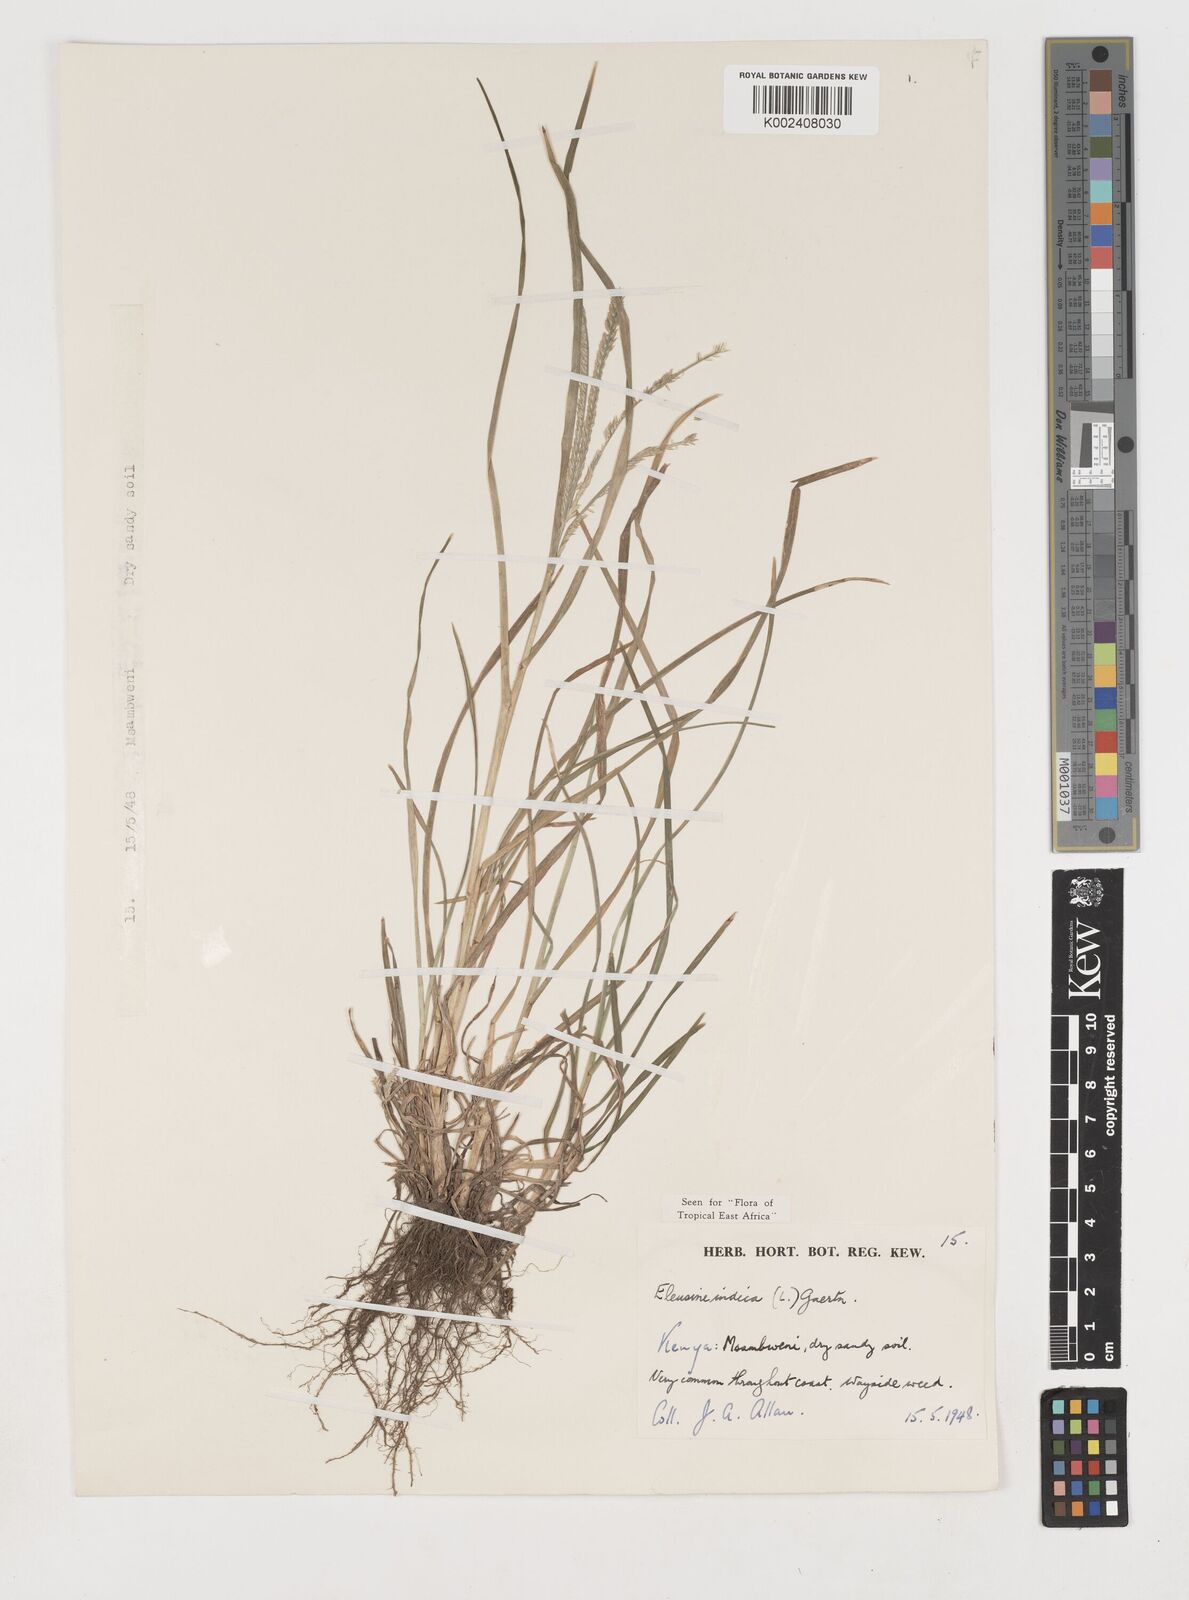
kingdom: Plantae
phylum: Tracheophyta
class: Liliopsida
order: Poales
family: Poaceae
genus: Eleusine
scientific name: Eleusine indica
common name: Yard-grass
